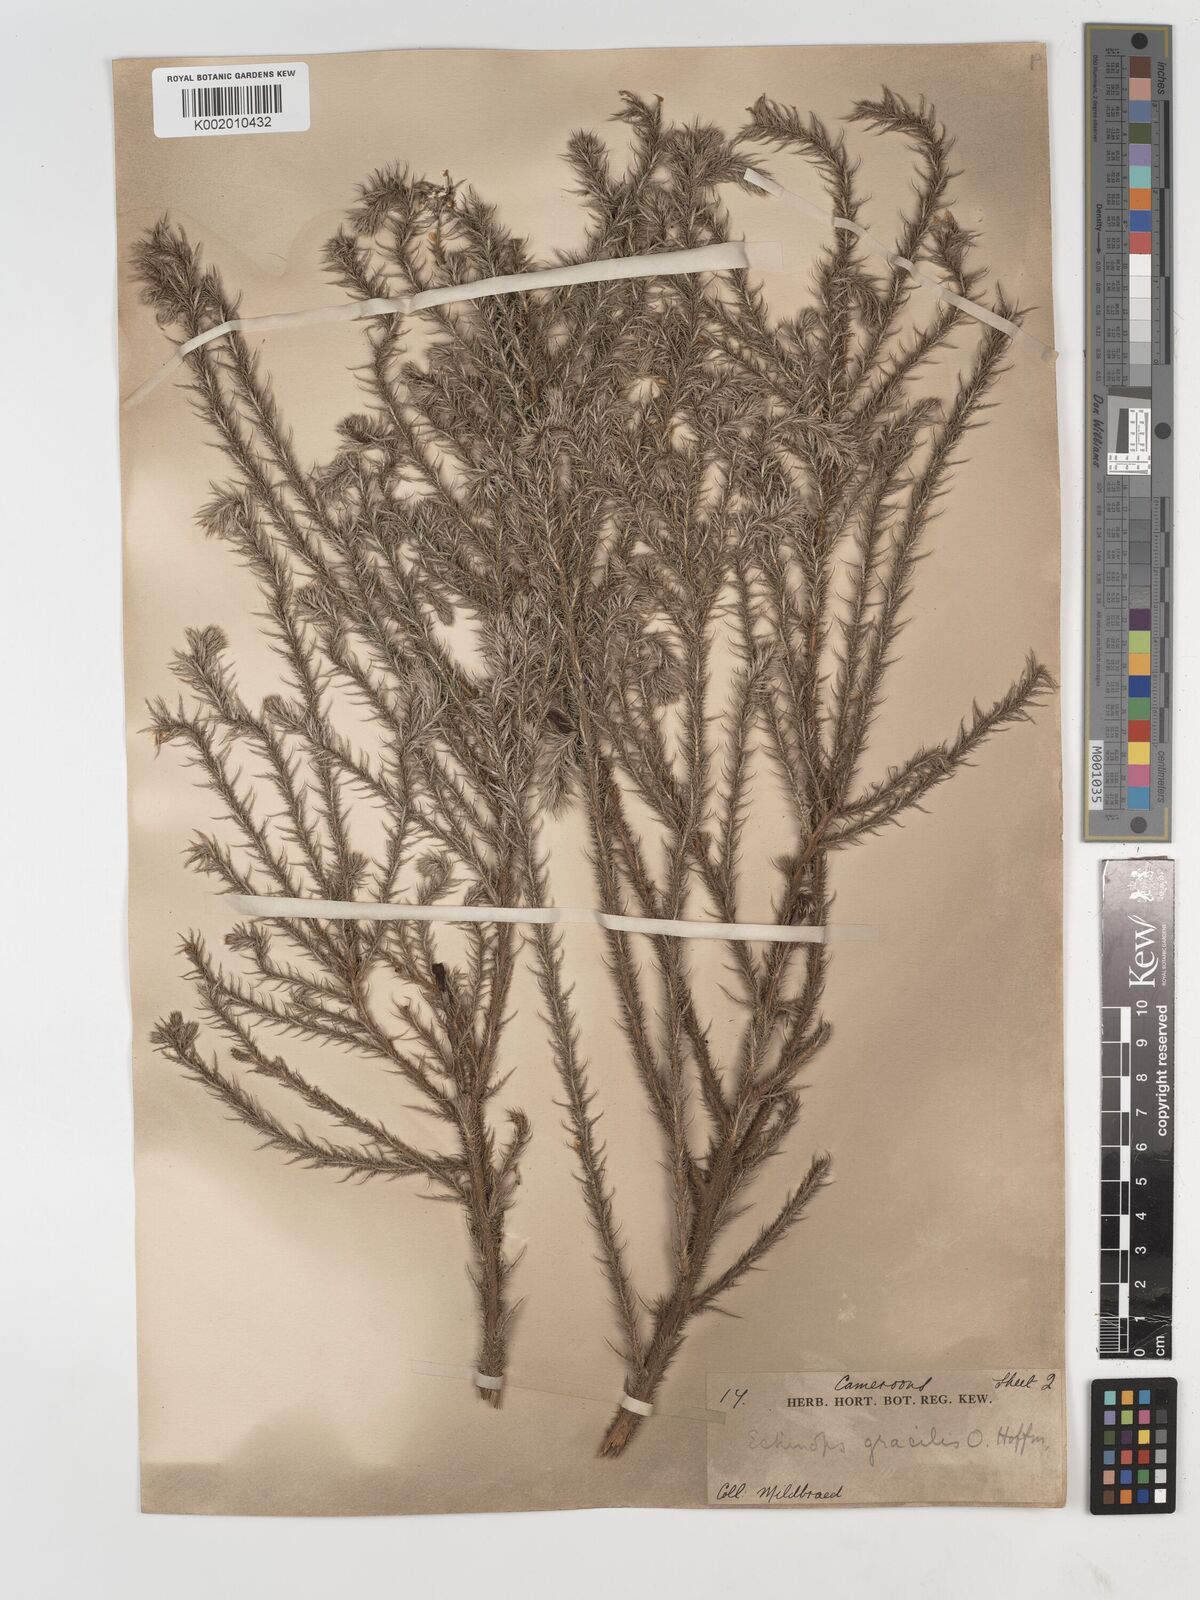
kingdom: Plantae
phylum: Tracheophyta
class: Magnoliopsida
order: Asterales
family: Asteraceae
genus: Echinops
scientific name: Echinops gracilis
